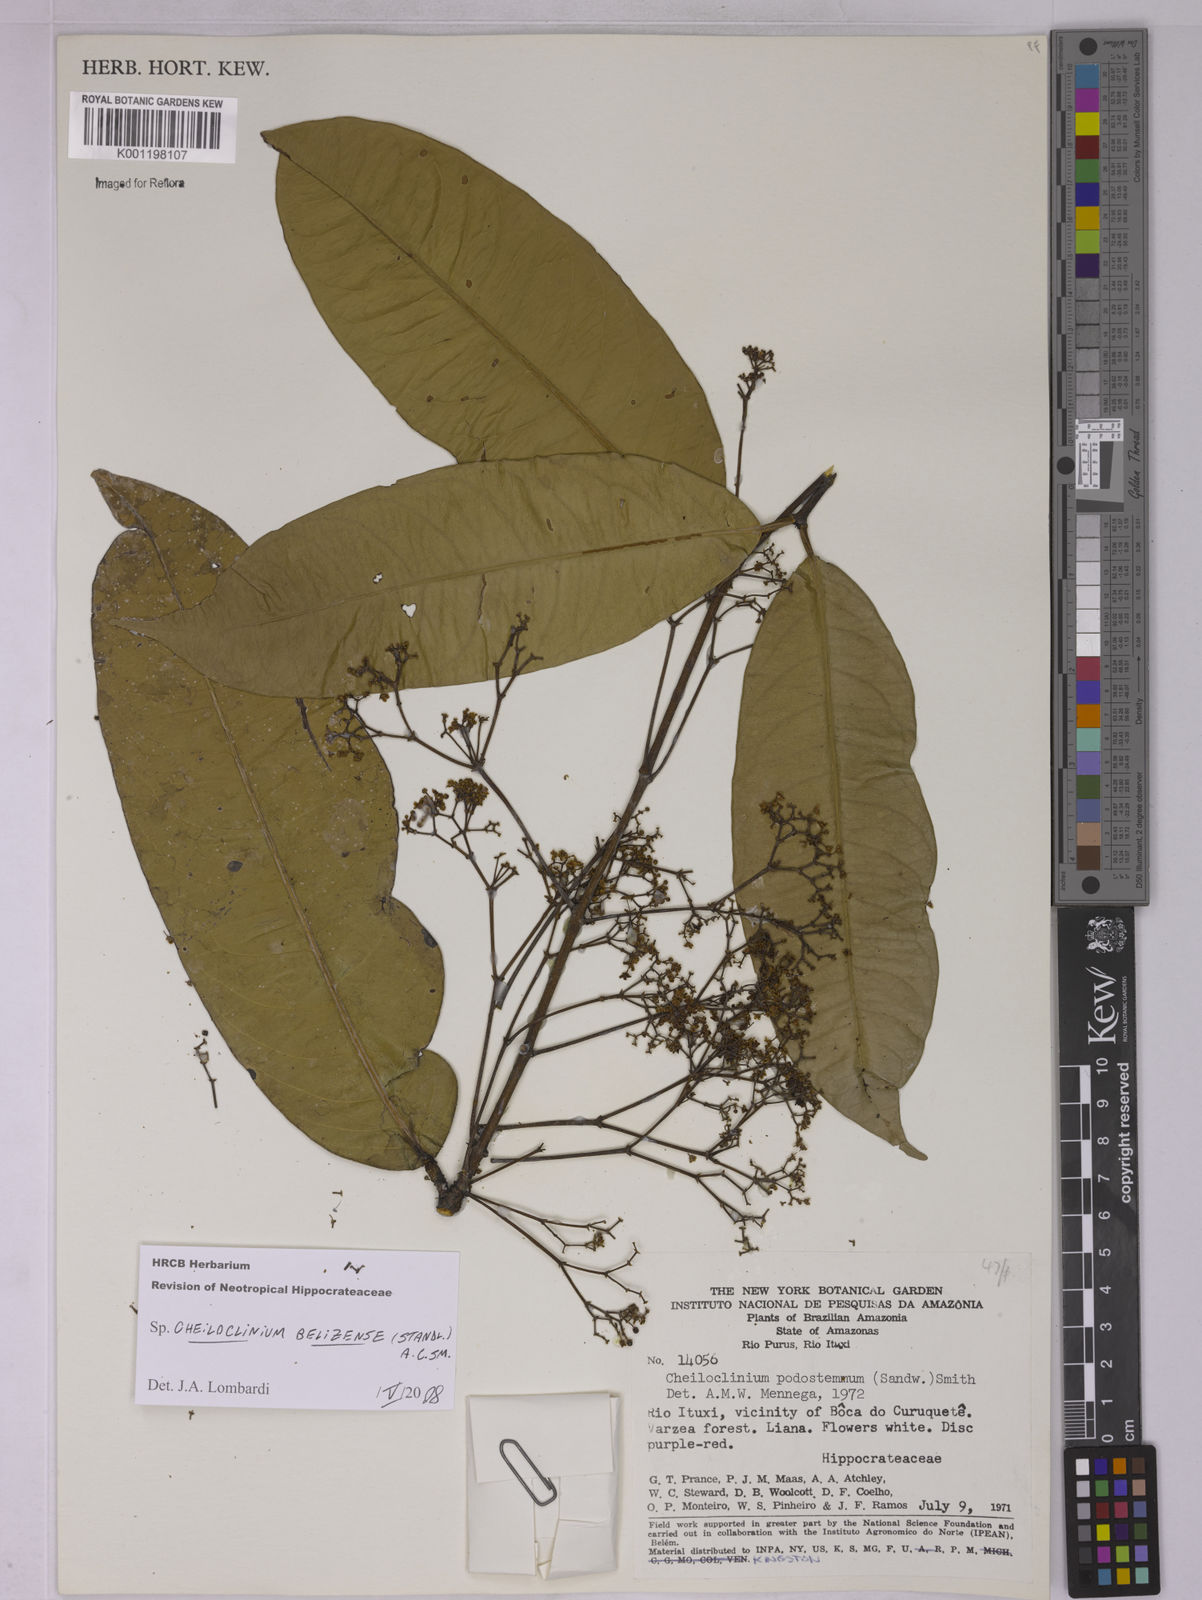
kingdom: Plantae
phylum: Tracheophyta
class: Magnoliopsida
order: Celastrales
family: Celastraceae
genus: Cheiloclinium
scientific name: Cheiloclinium belizense
